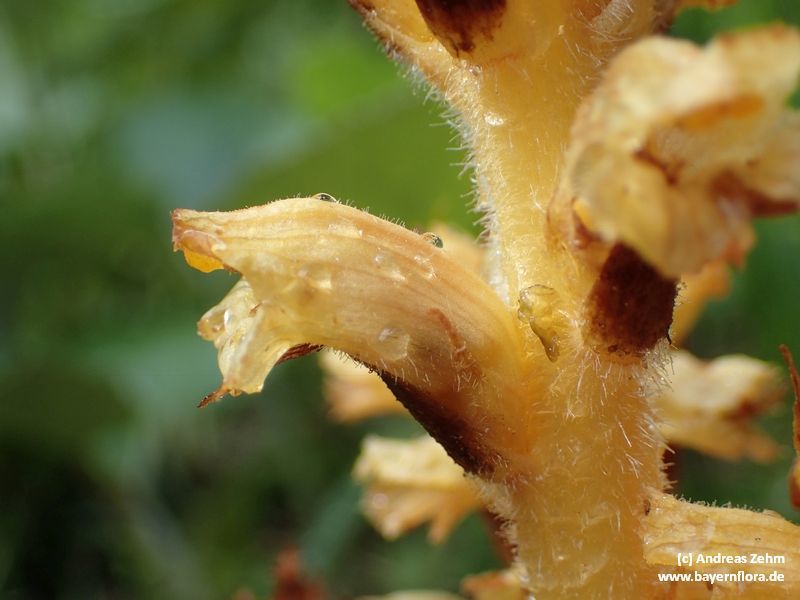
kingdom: Plantae
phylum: Tracheophyta
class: Magnoliopsida
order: Lamiales
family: Orobanchaceae
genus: Orobanche
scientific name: Orobanche flava
